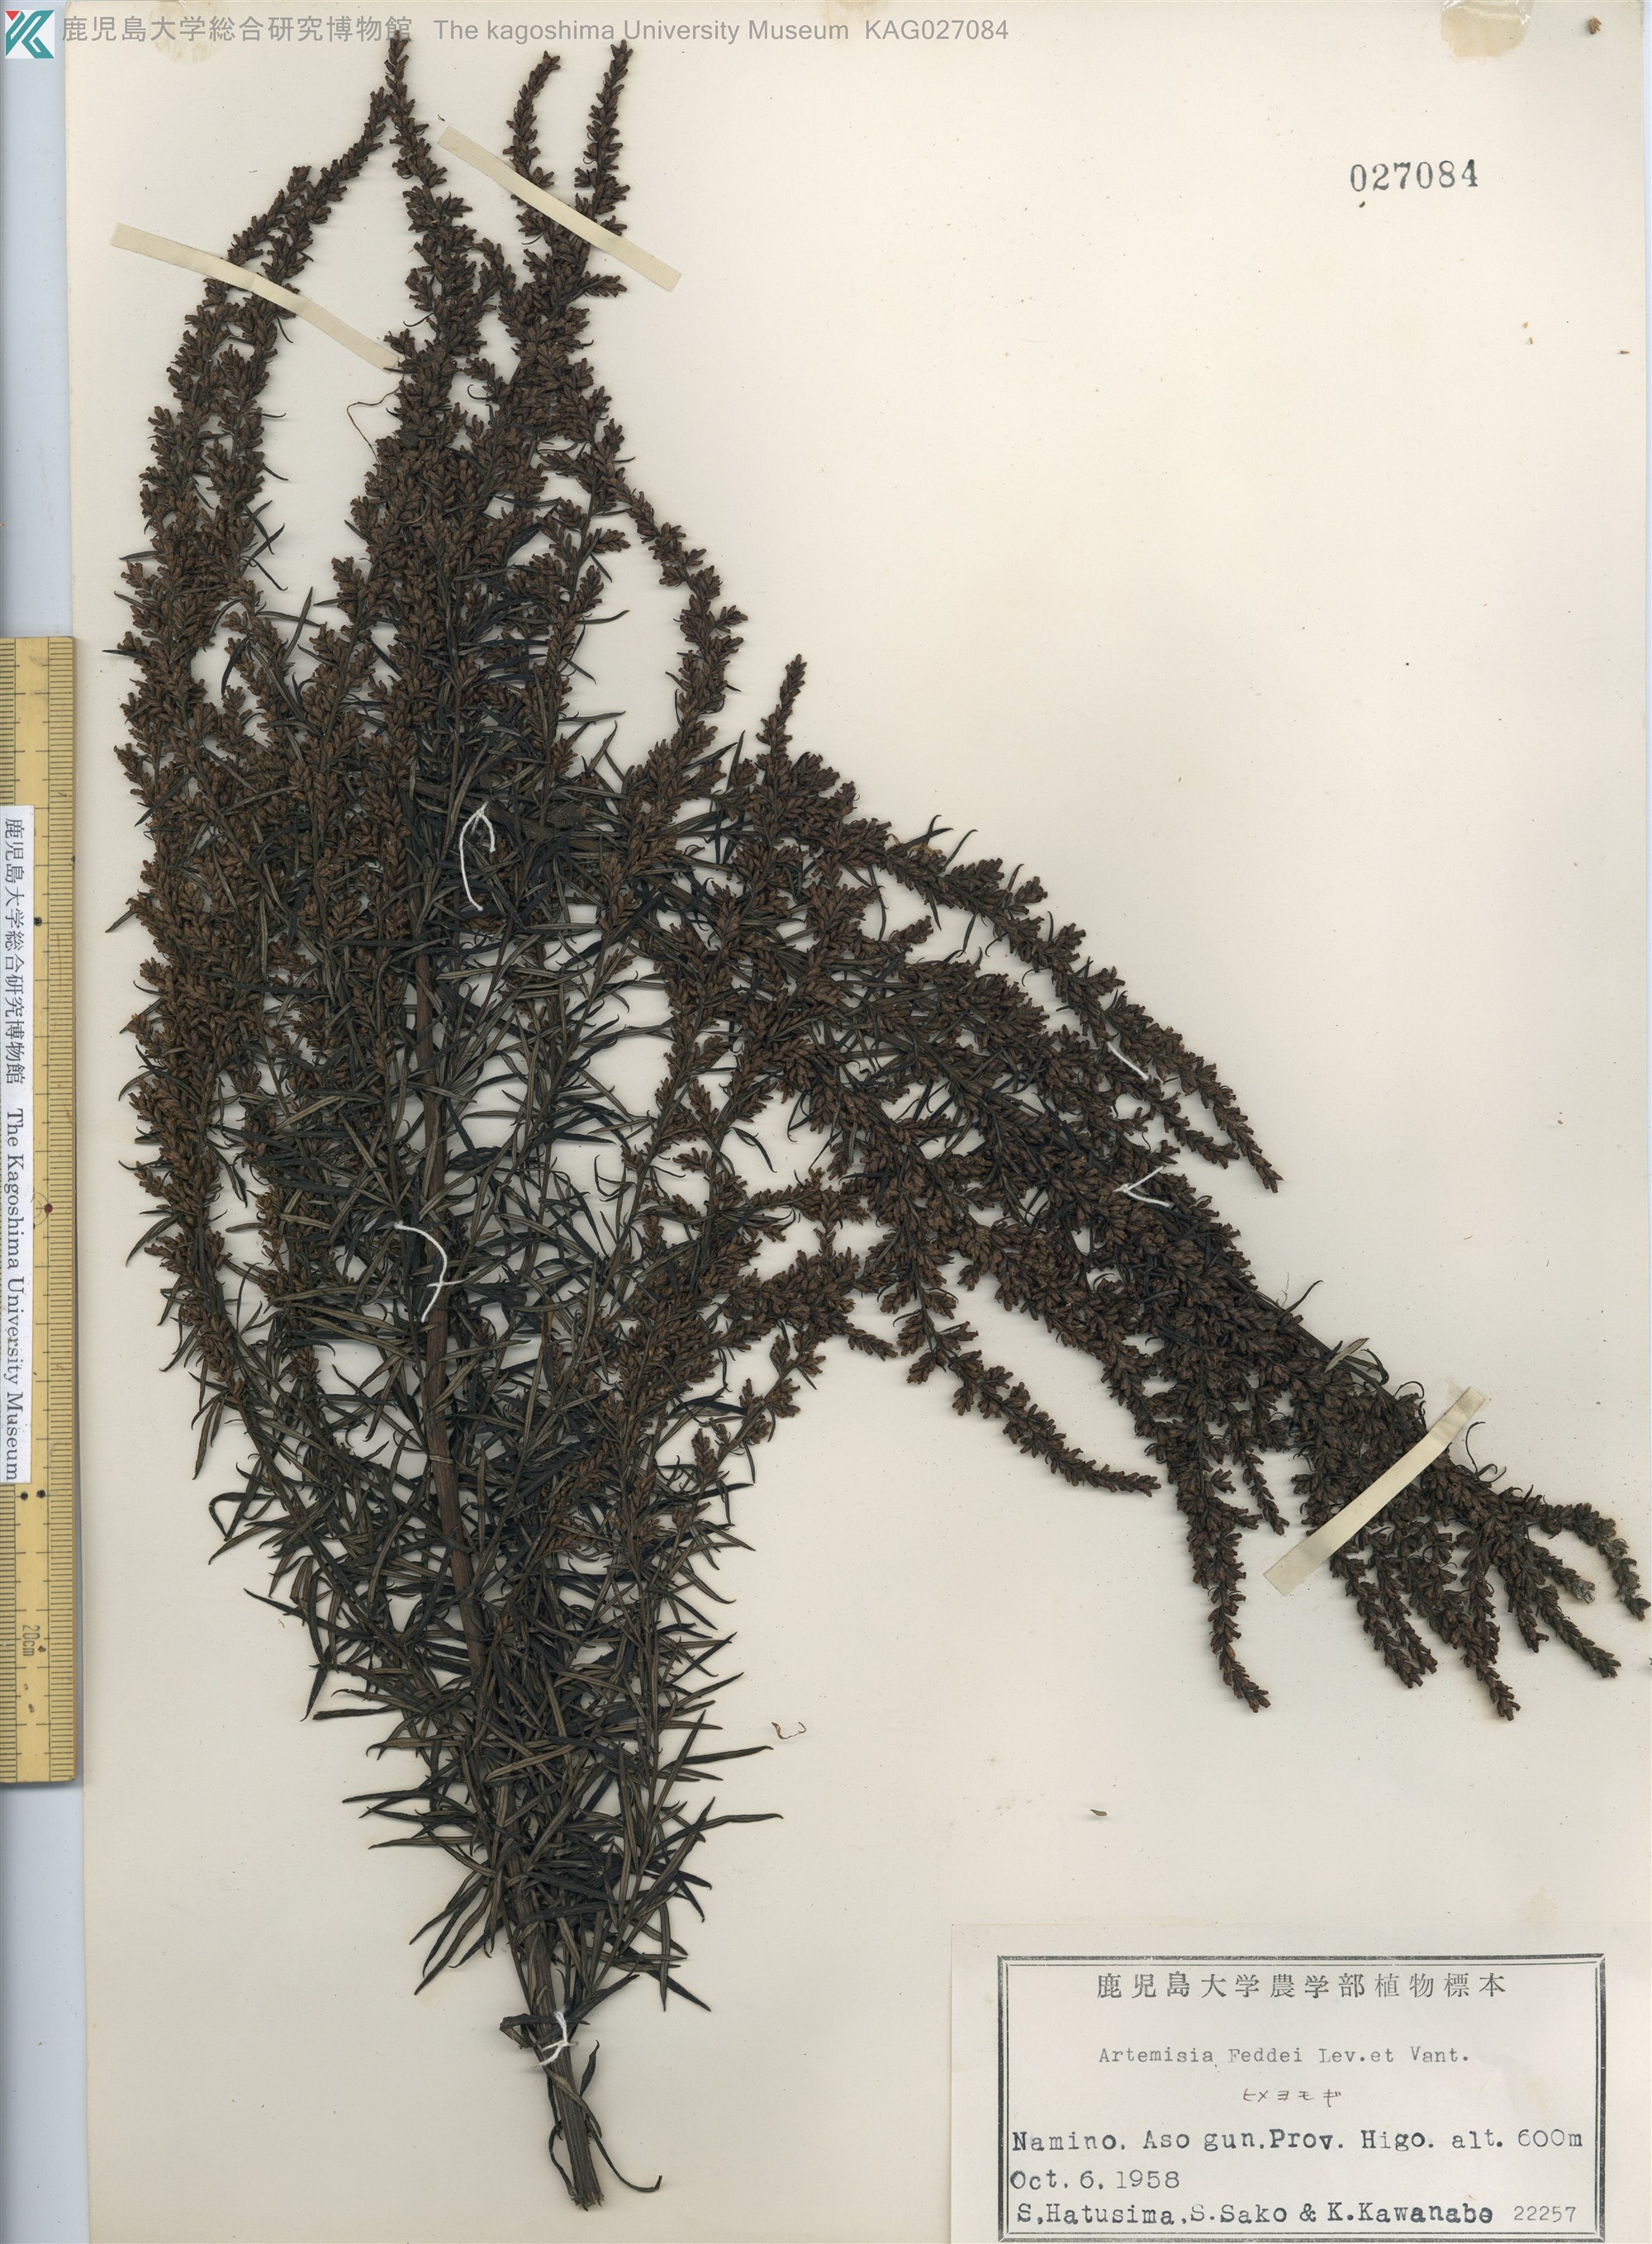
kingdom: Plantae
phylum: Tracheophyta
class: Magnoliopsida
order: Asterales
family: Asteraceae
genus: Artemisia
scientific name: Artemisia lancea
